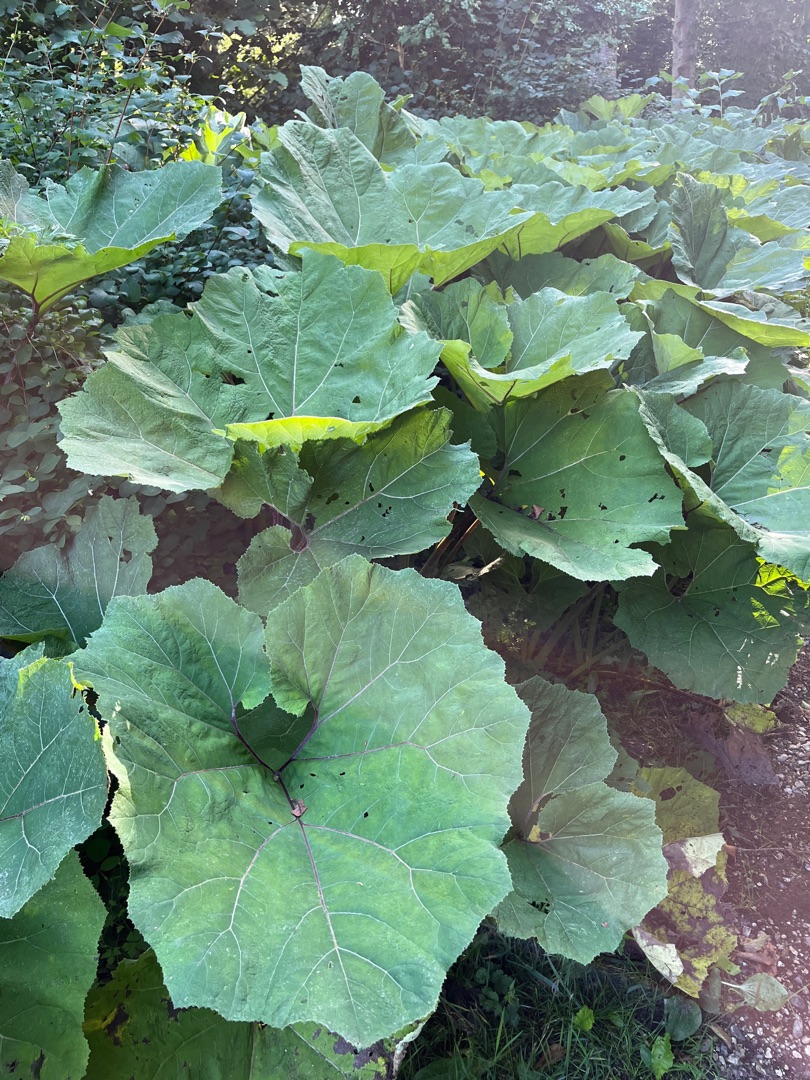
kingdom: Plantae
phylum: Tracheophyta
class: Magnoliopsida
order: Asterales
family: Asteraceae
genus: Petasites
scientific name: Petasites hybridus
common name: Rød hestehov
